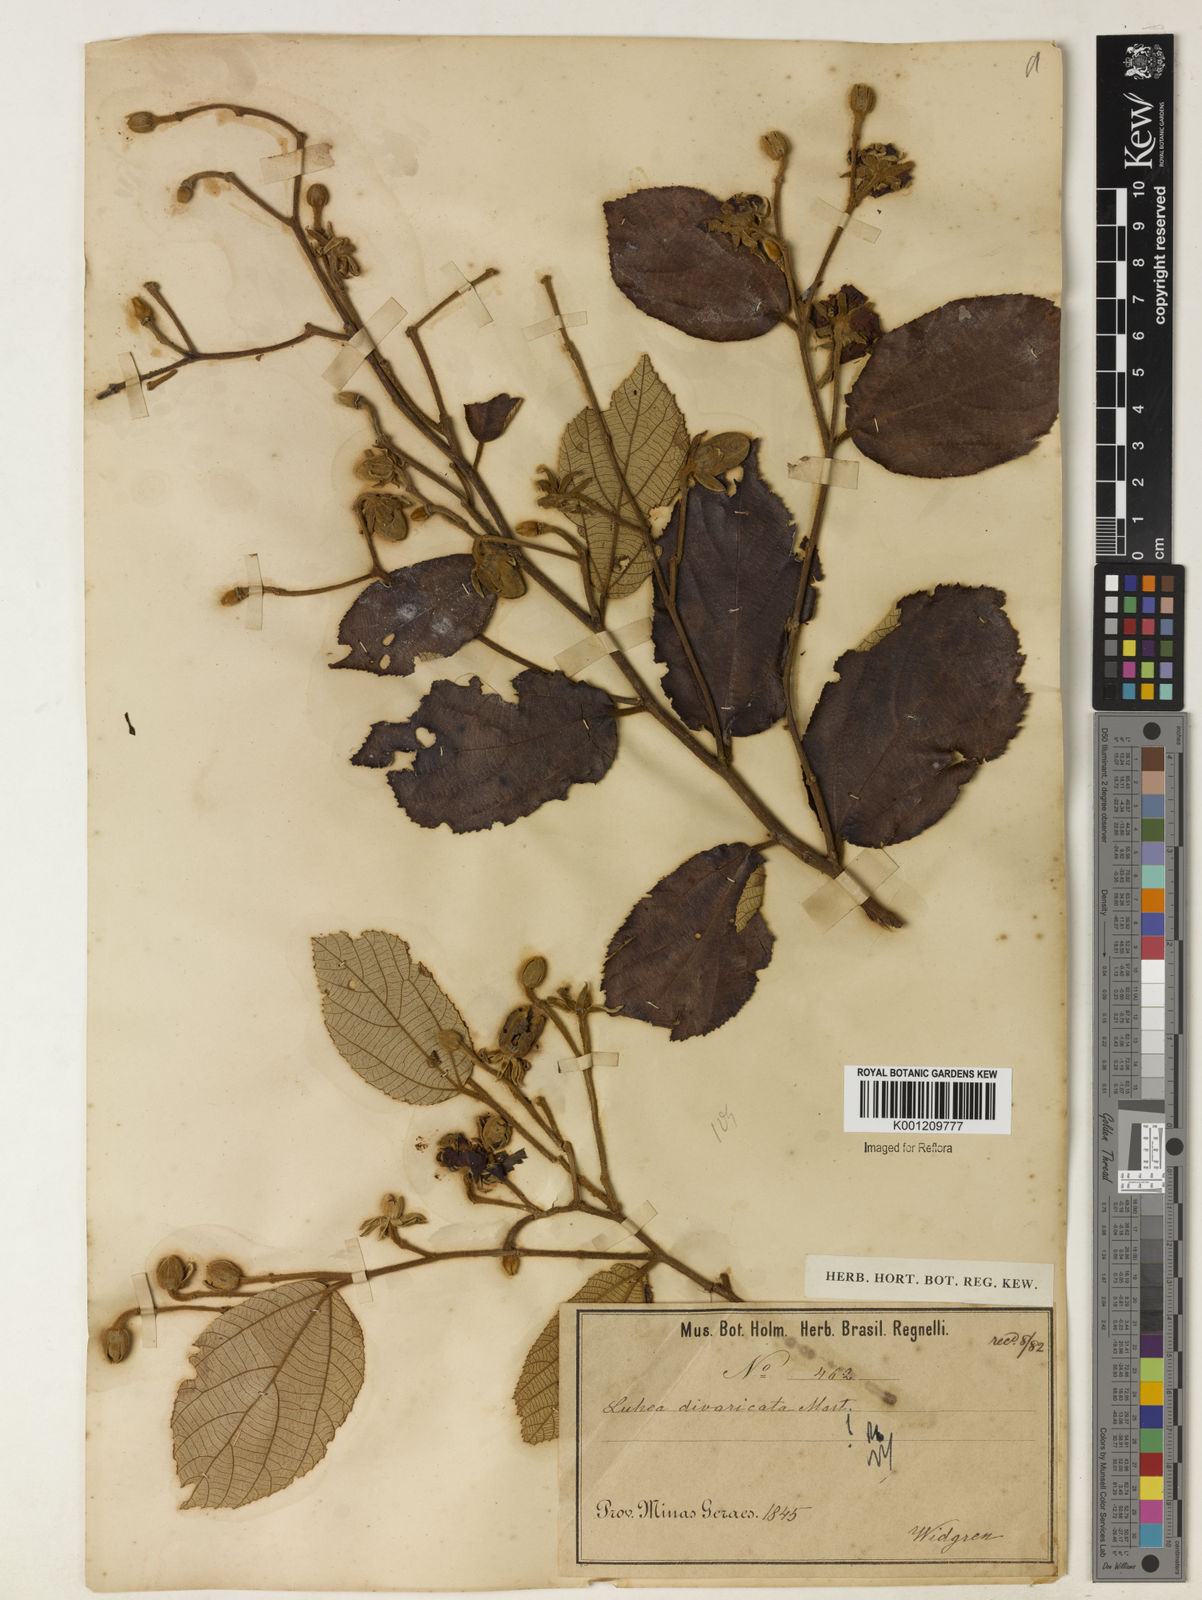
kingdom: Plantae
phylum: Tracheophyta
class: Magnoliopsida
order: Malvales
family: Malvaceae
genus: Luehea
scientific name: Luehea divaricata
